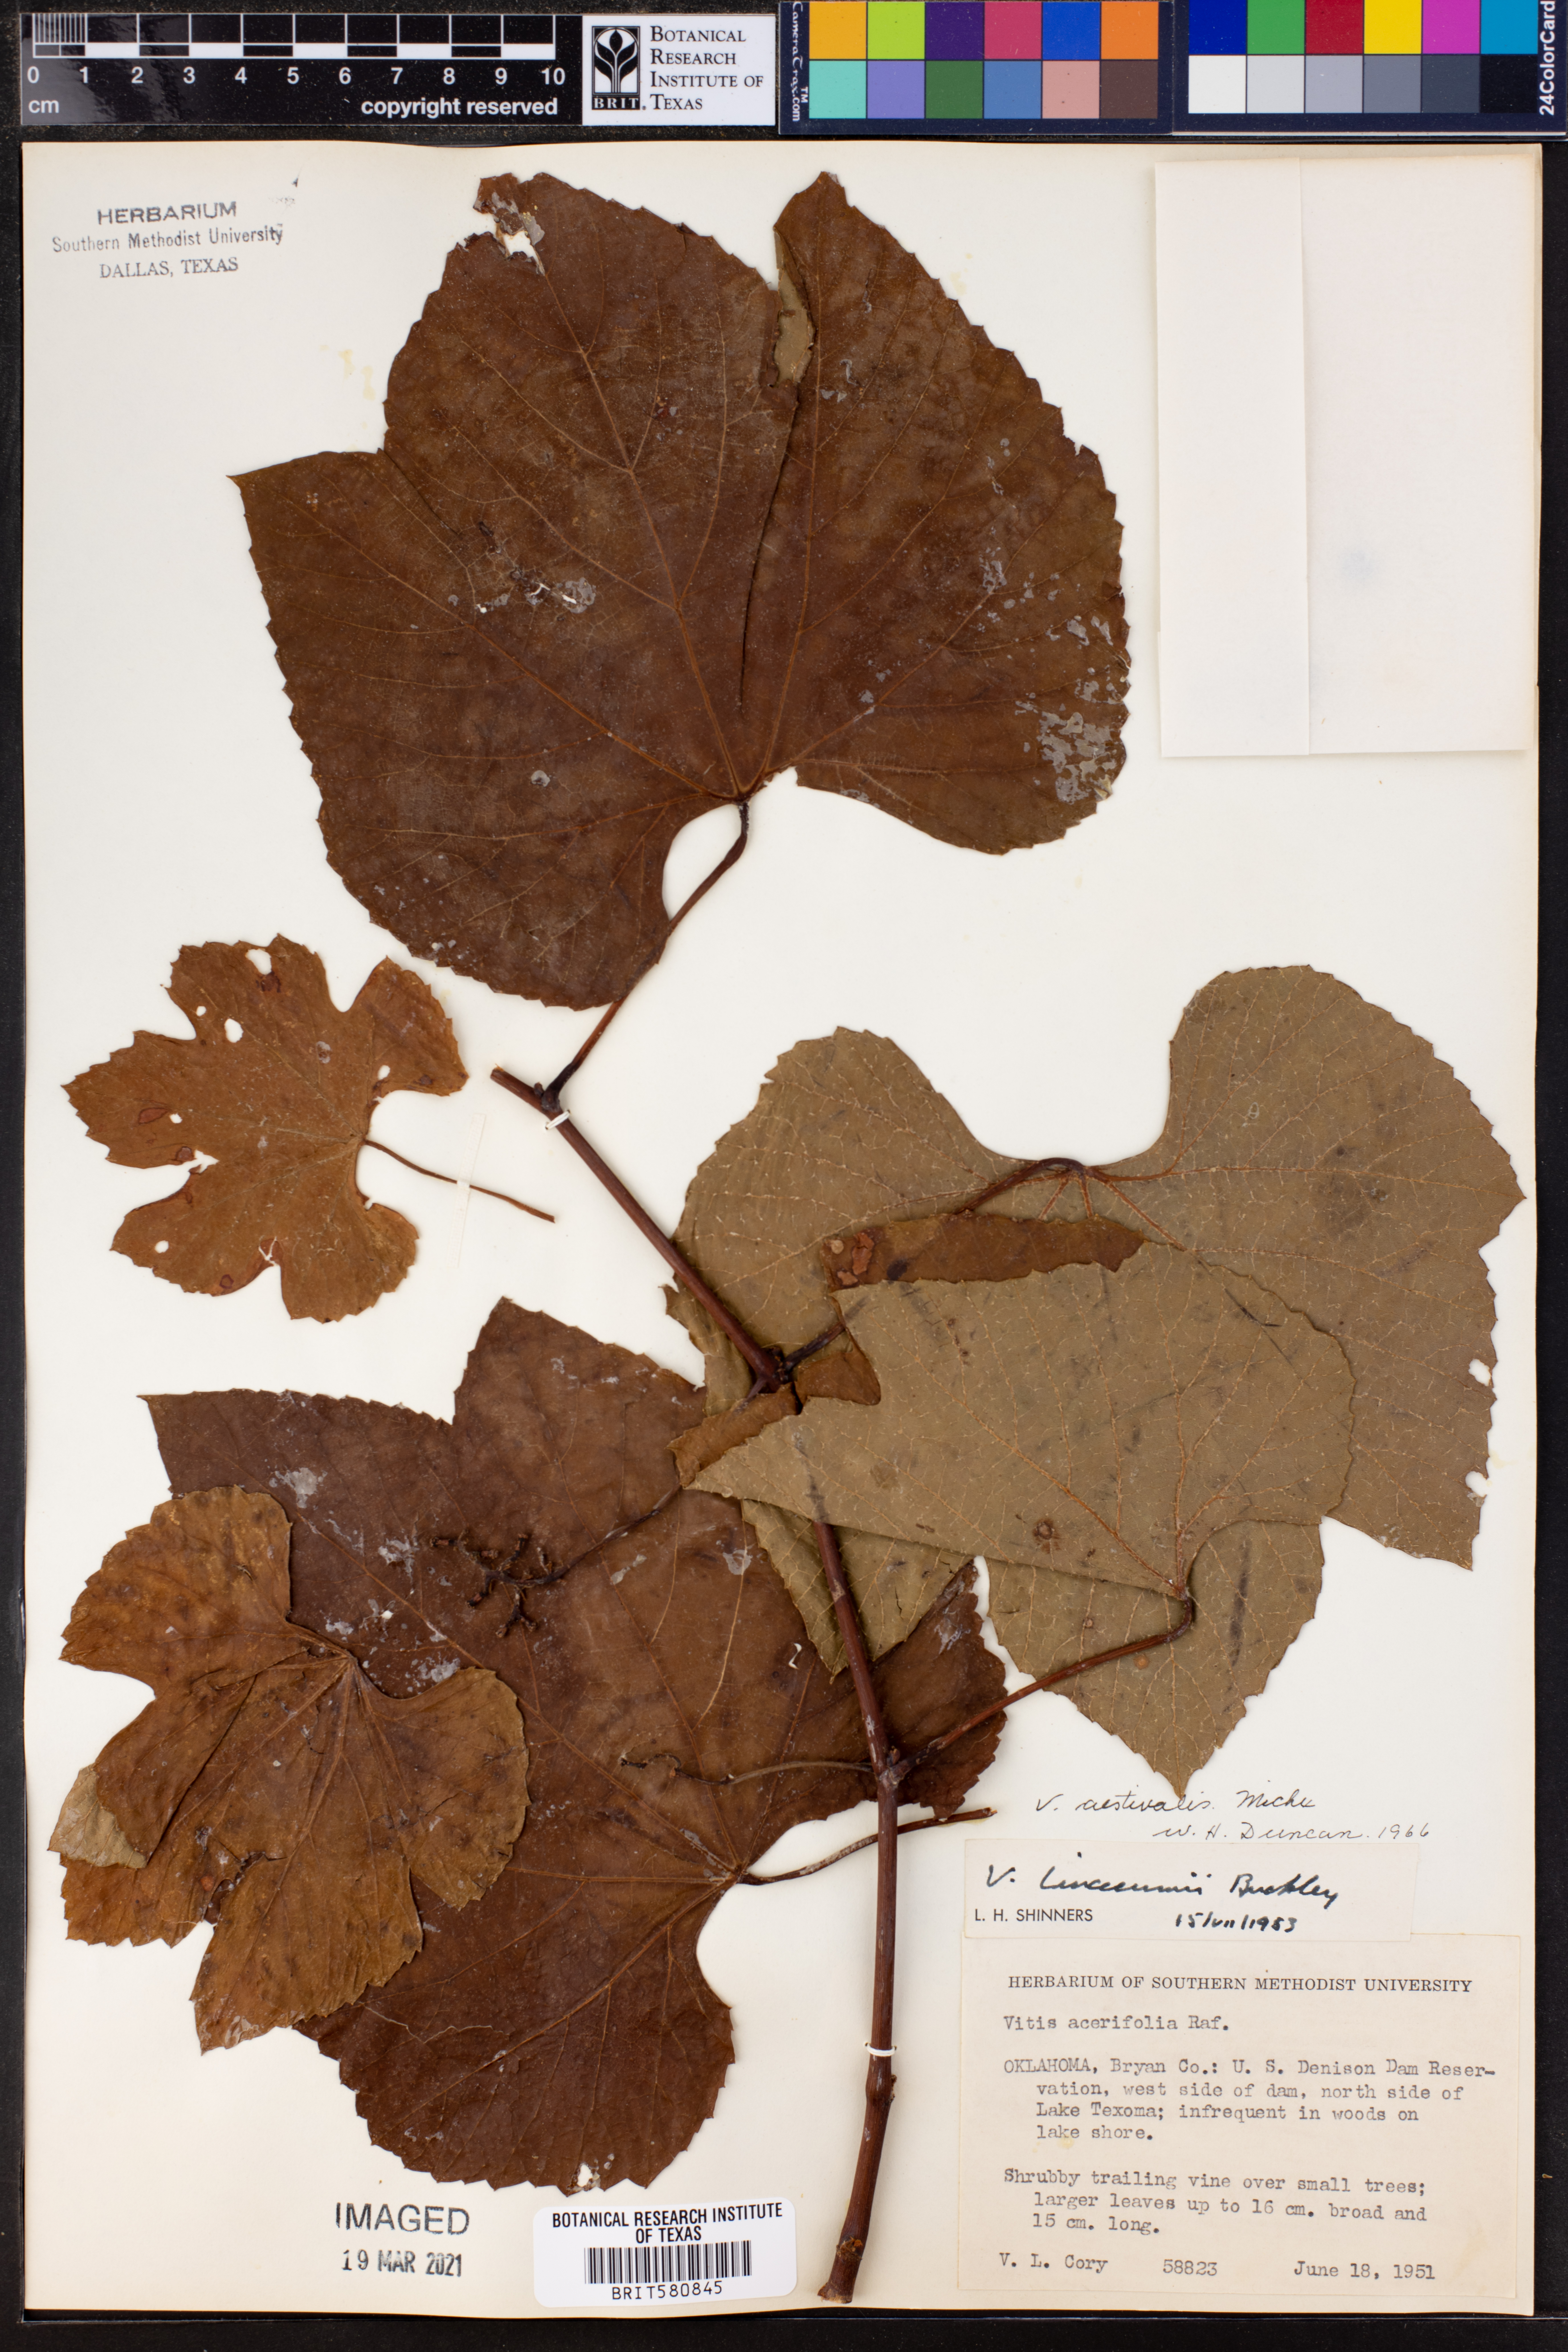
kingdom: Plantae
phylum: Tracheophyta
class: Magnoliopsida
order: Vitales
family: Vitaceae
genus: Vitis
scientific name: Vitis aestivalis
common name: Pigeon grape
